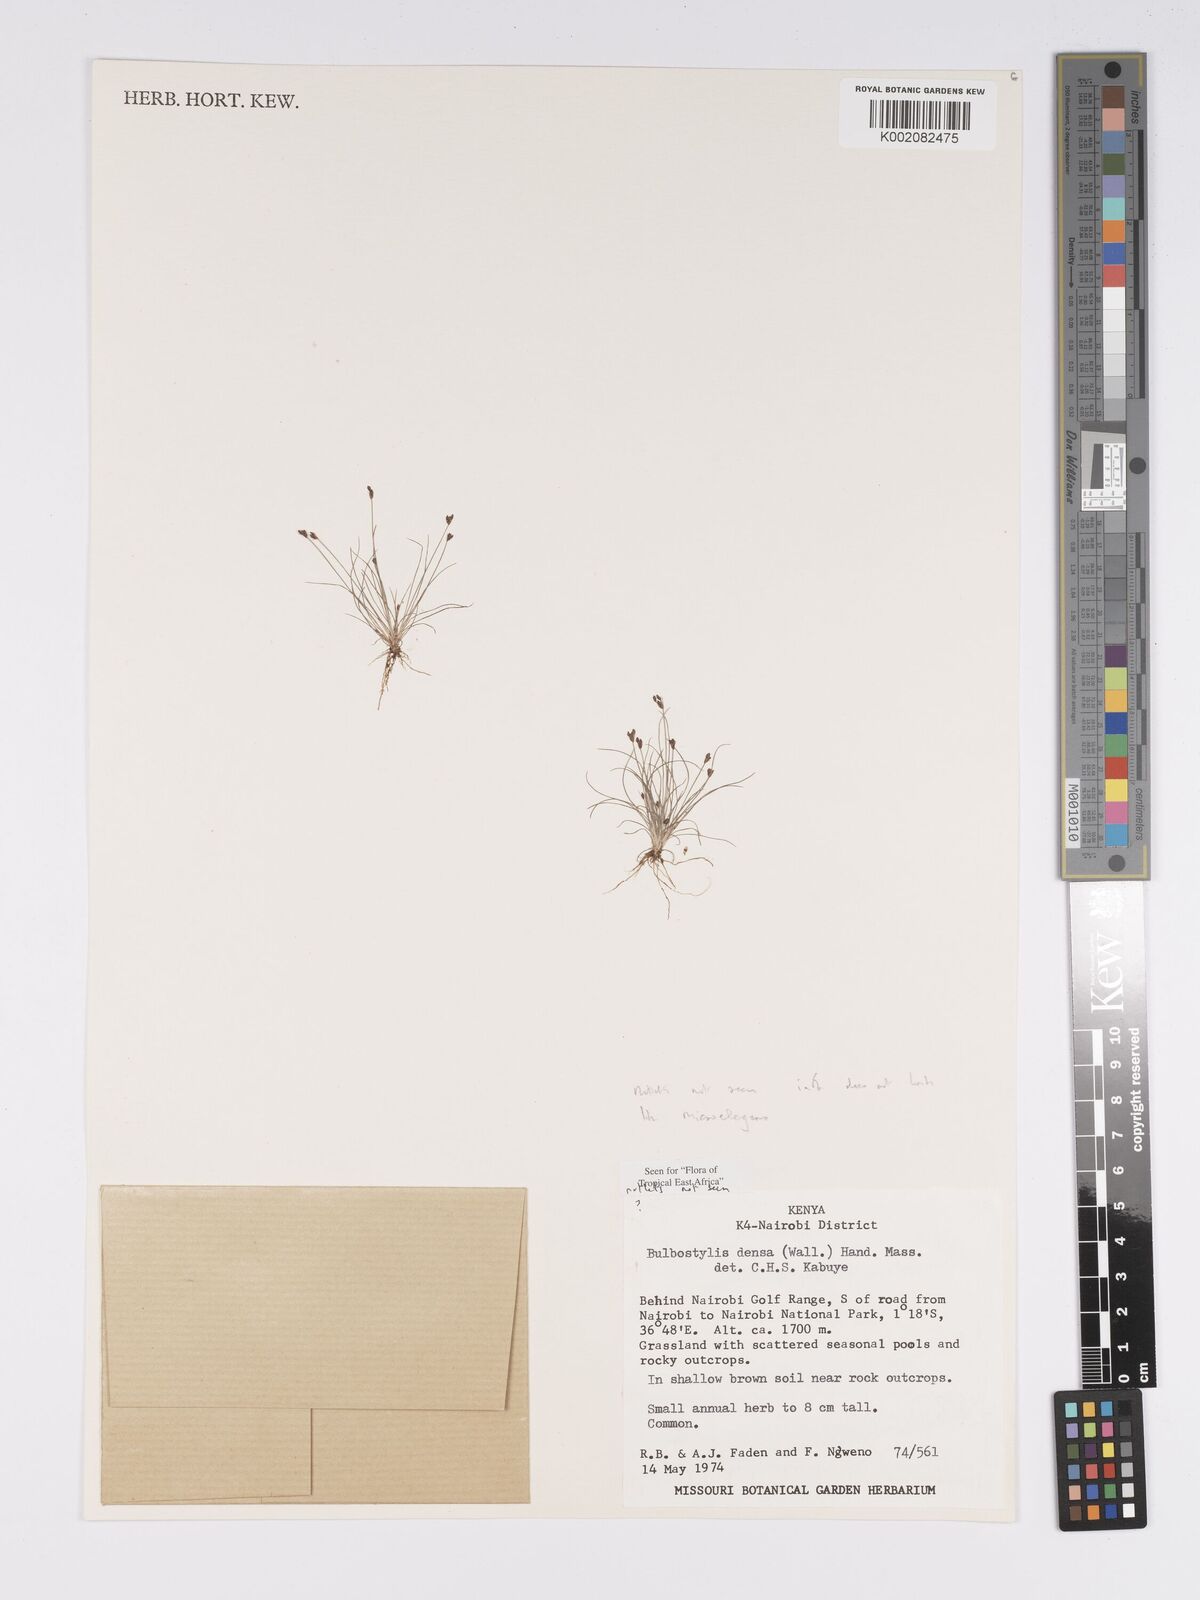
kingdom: Plantae
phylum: Tracheophyta
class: Liliopsida
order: Poales
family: Cyperaceae
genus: Bulbostylis
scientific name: Bulbostylis densa
